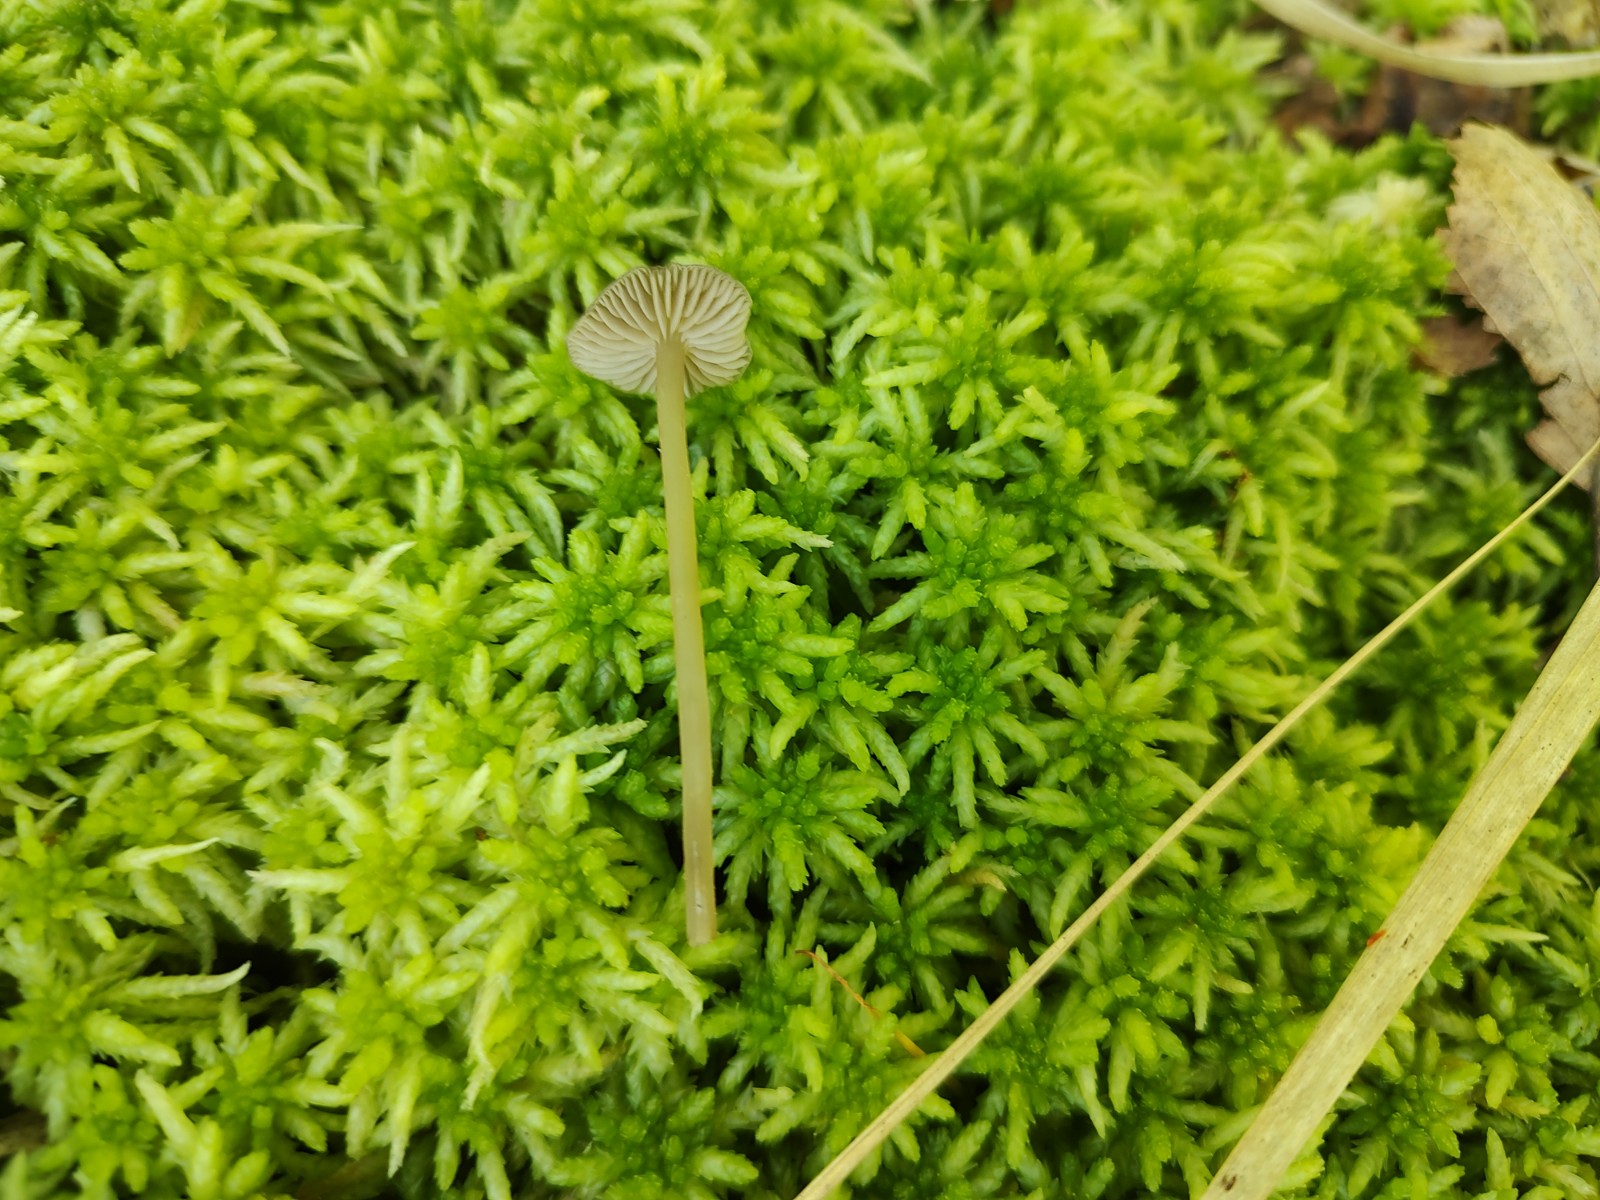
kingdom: Fungi
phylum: Basidiomycota
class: Agaricomycetes
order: Agaricales
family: Lyophyllaceae
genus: Sphagnurus
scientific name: Sphagnurus paluster
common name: tørvemos-gråblad
